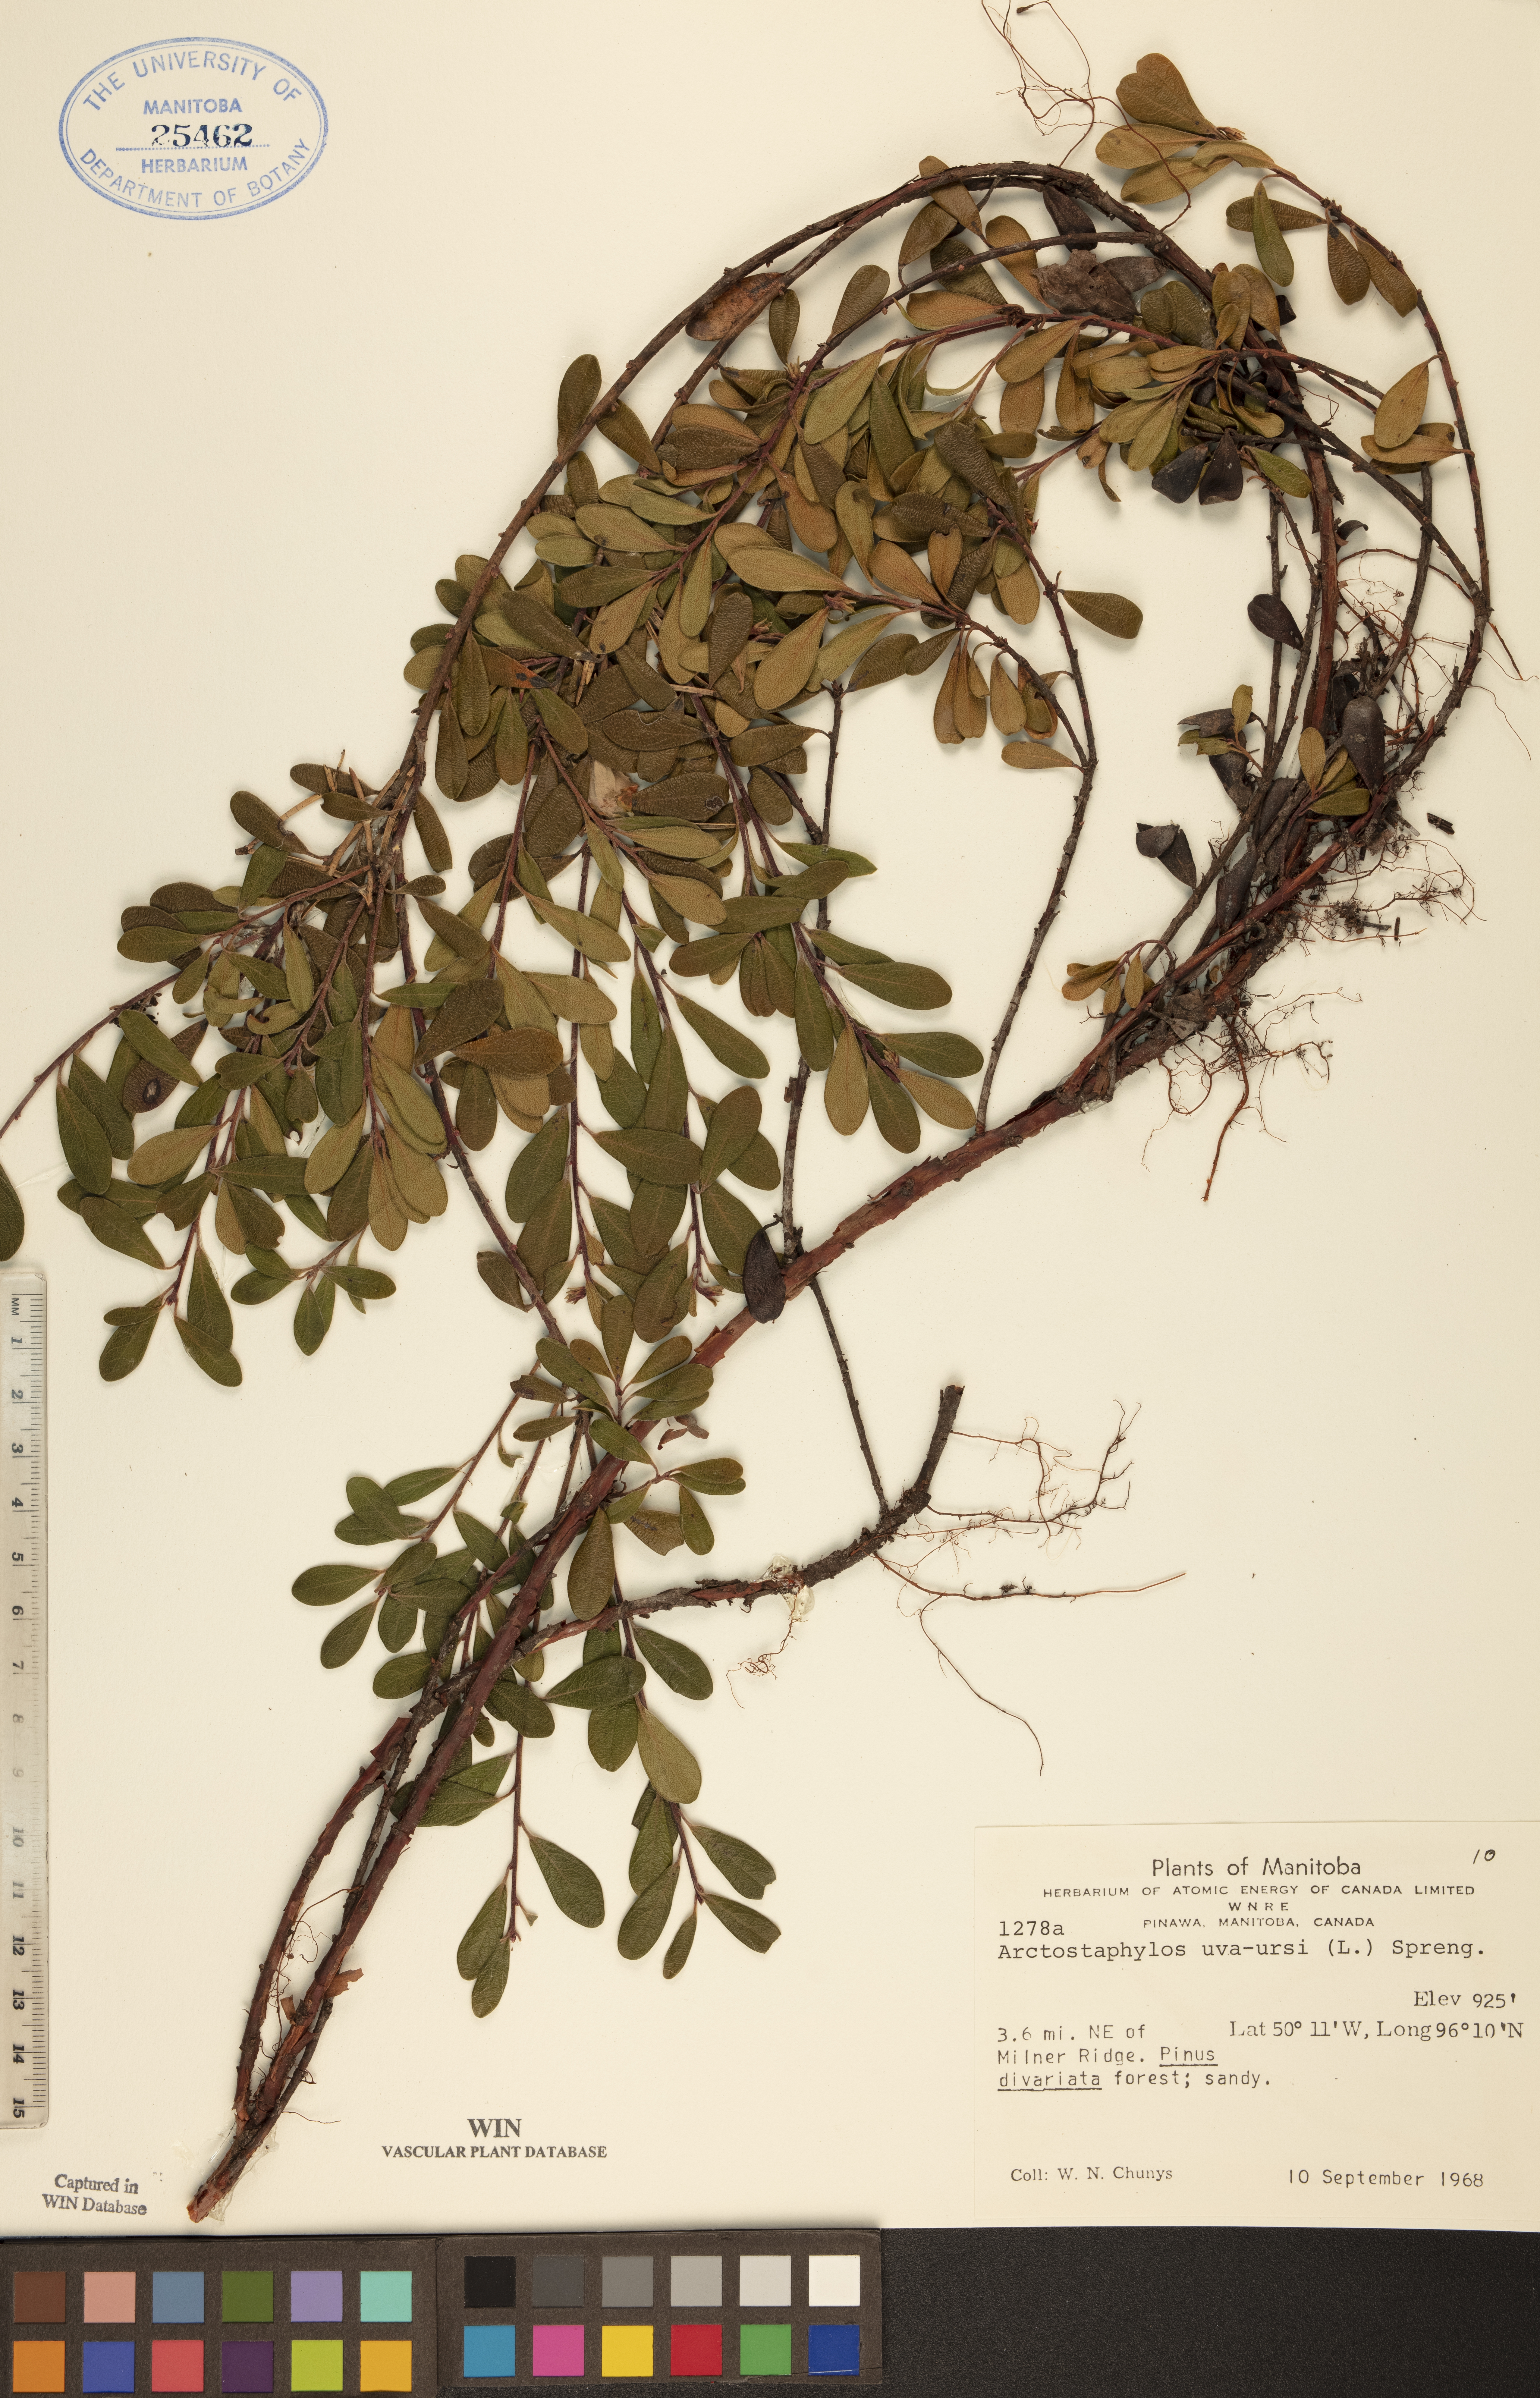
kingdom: Plantae
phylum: Tracheophyta
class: Magnoliopsida
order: Ericales
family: Ericaceae
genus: Arctostaphylos
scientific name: Arctostaphylos uva-ursi
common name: Bearberry
